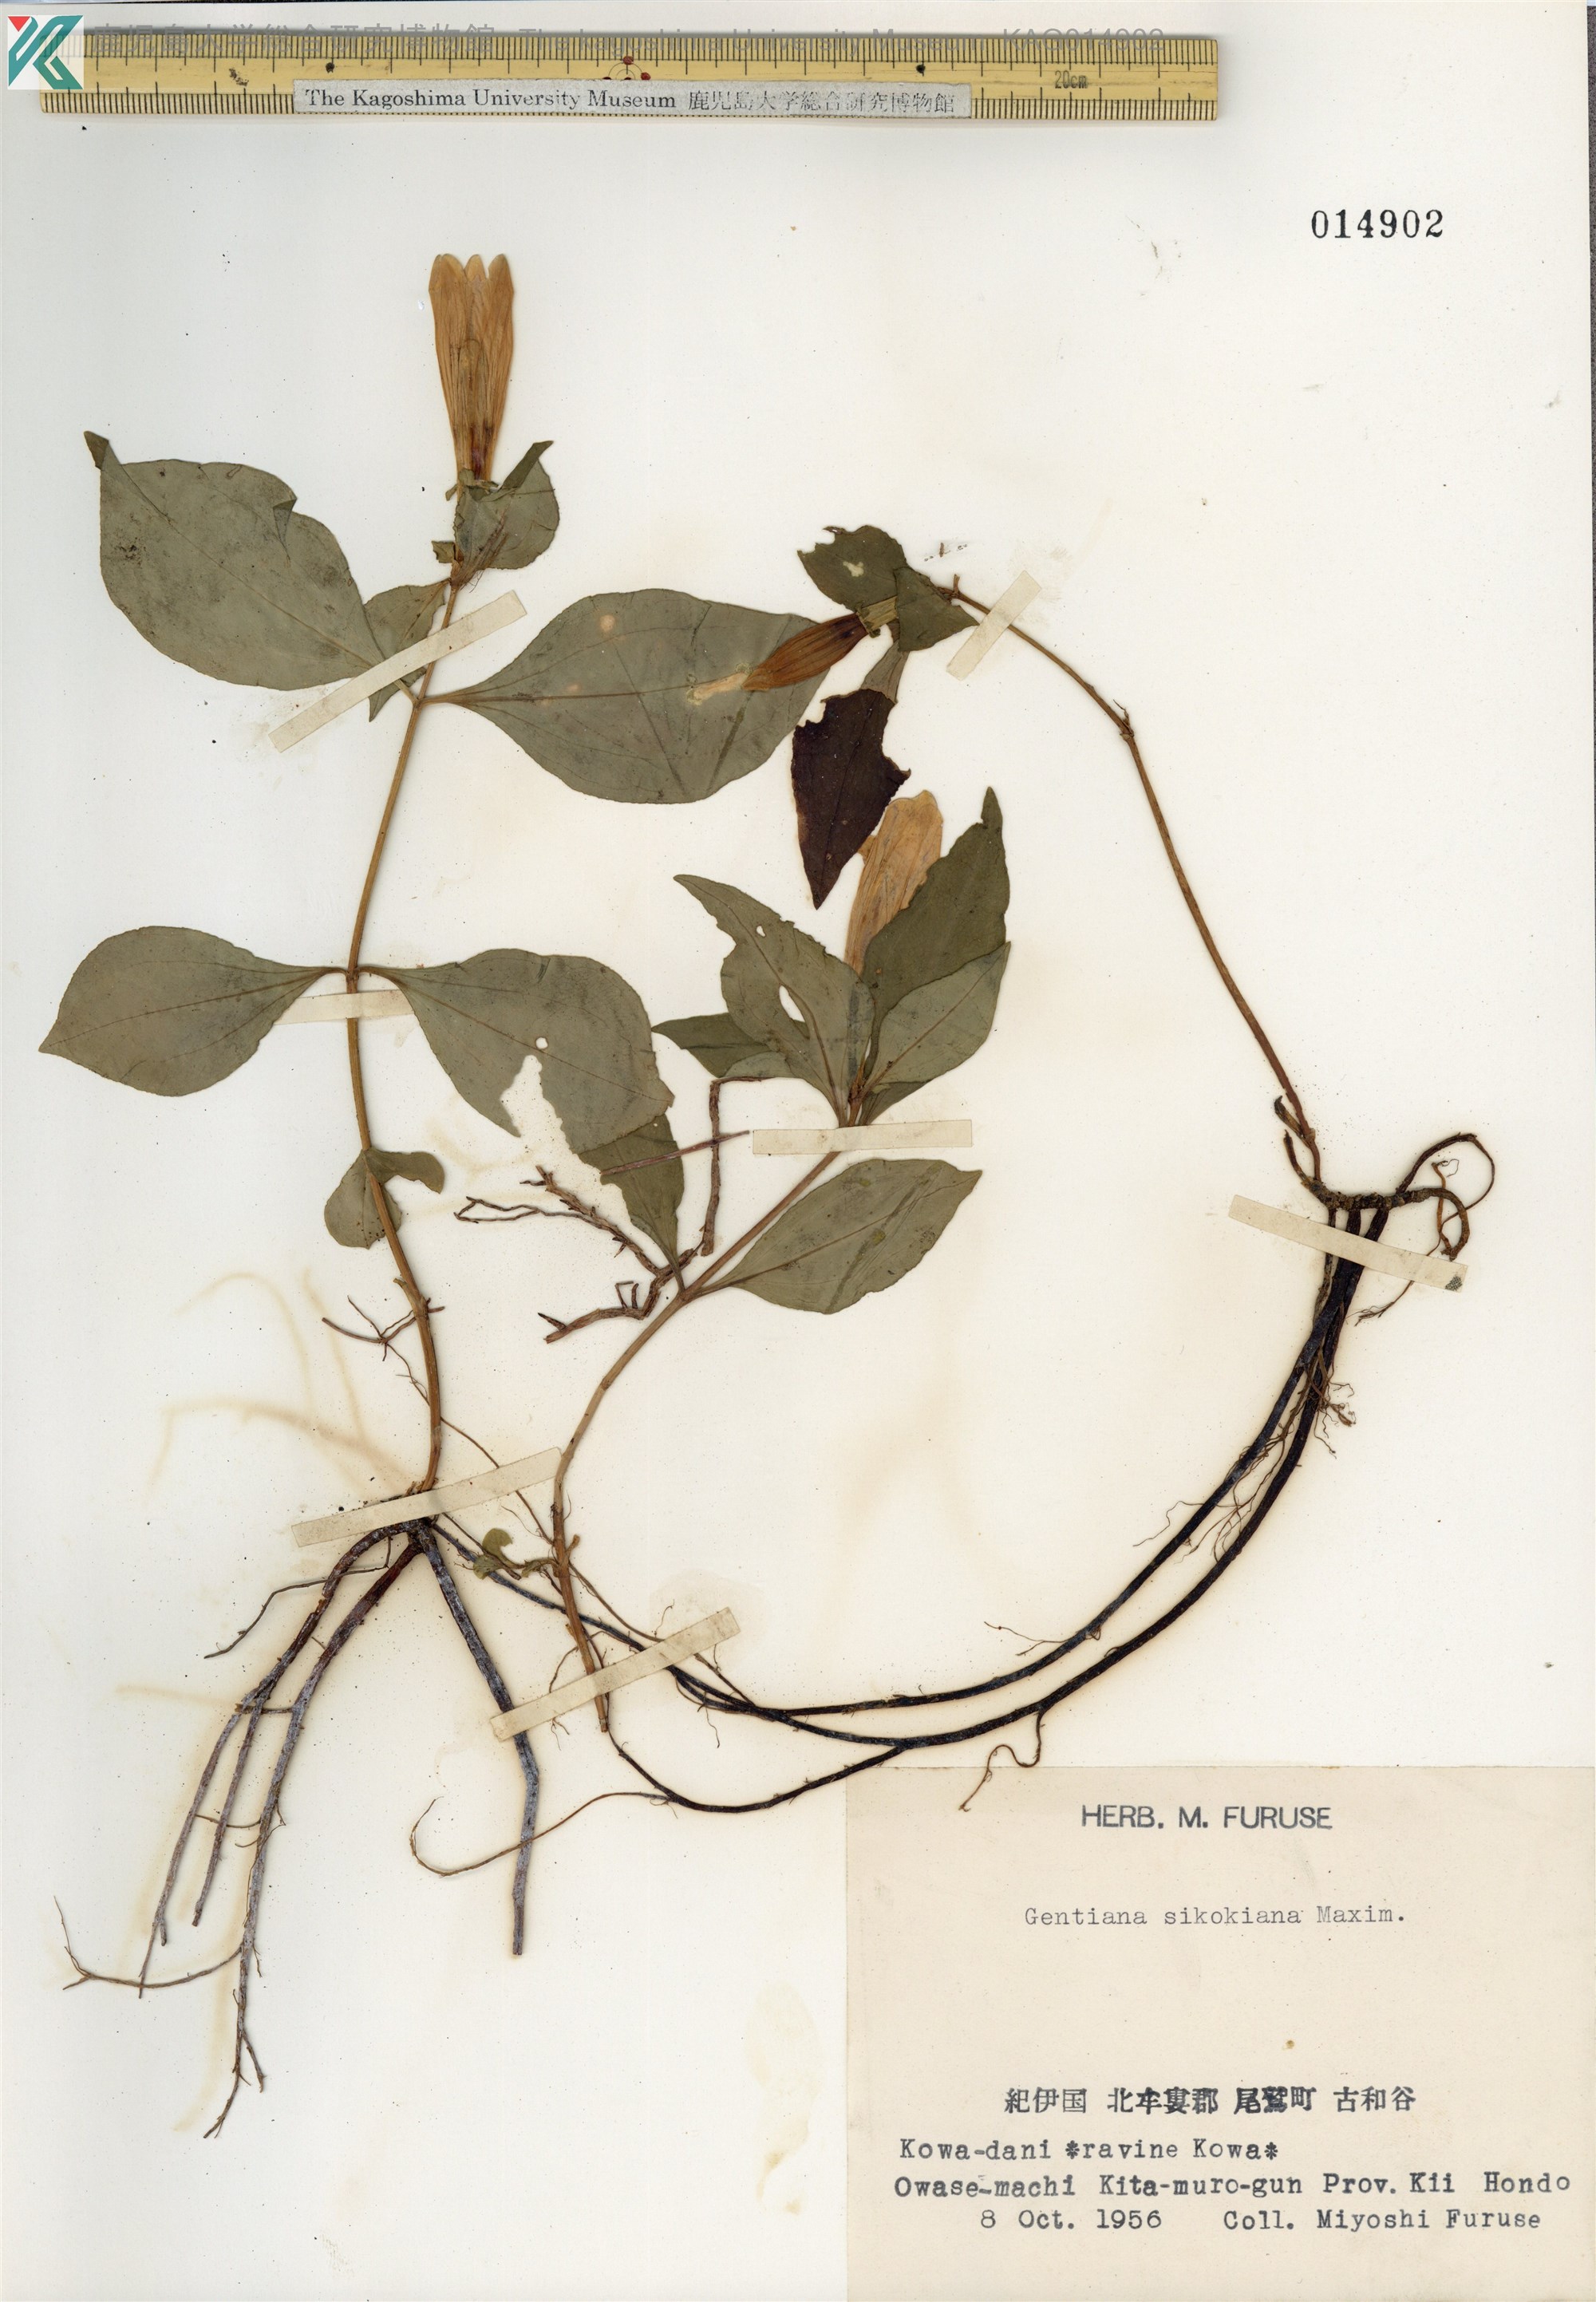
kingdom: Plantae
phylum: Tracheophyta
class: Magnoliopsida
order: Gentianales
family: Gentianaceae
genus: Gentiana
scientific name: Gentiana sikokiana
